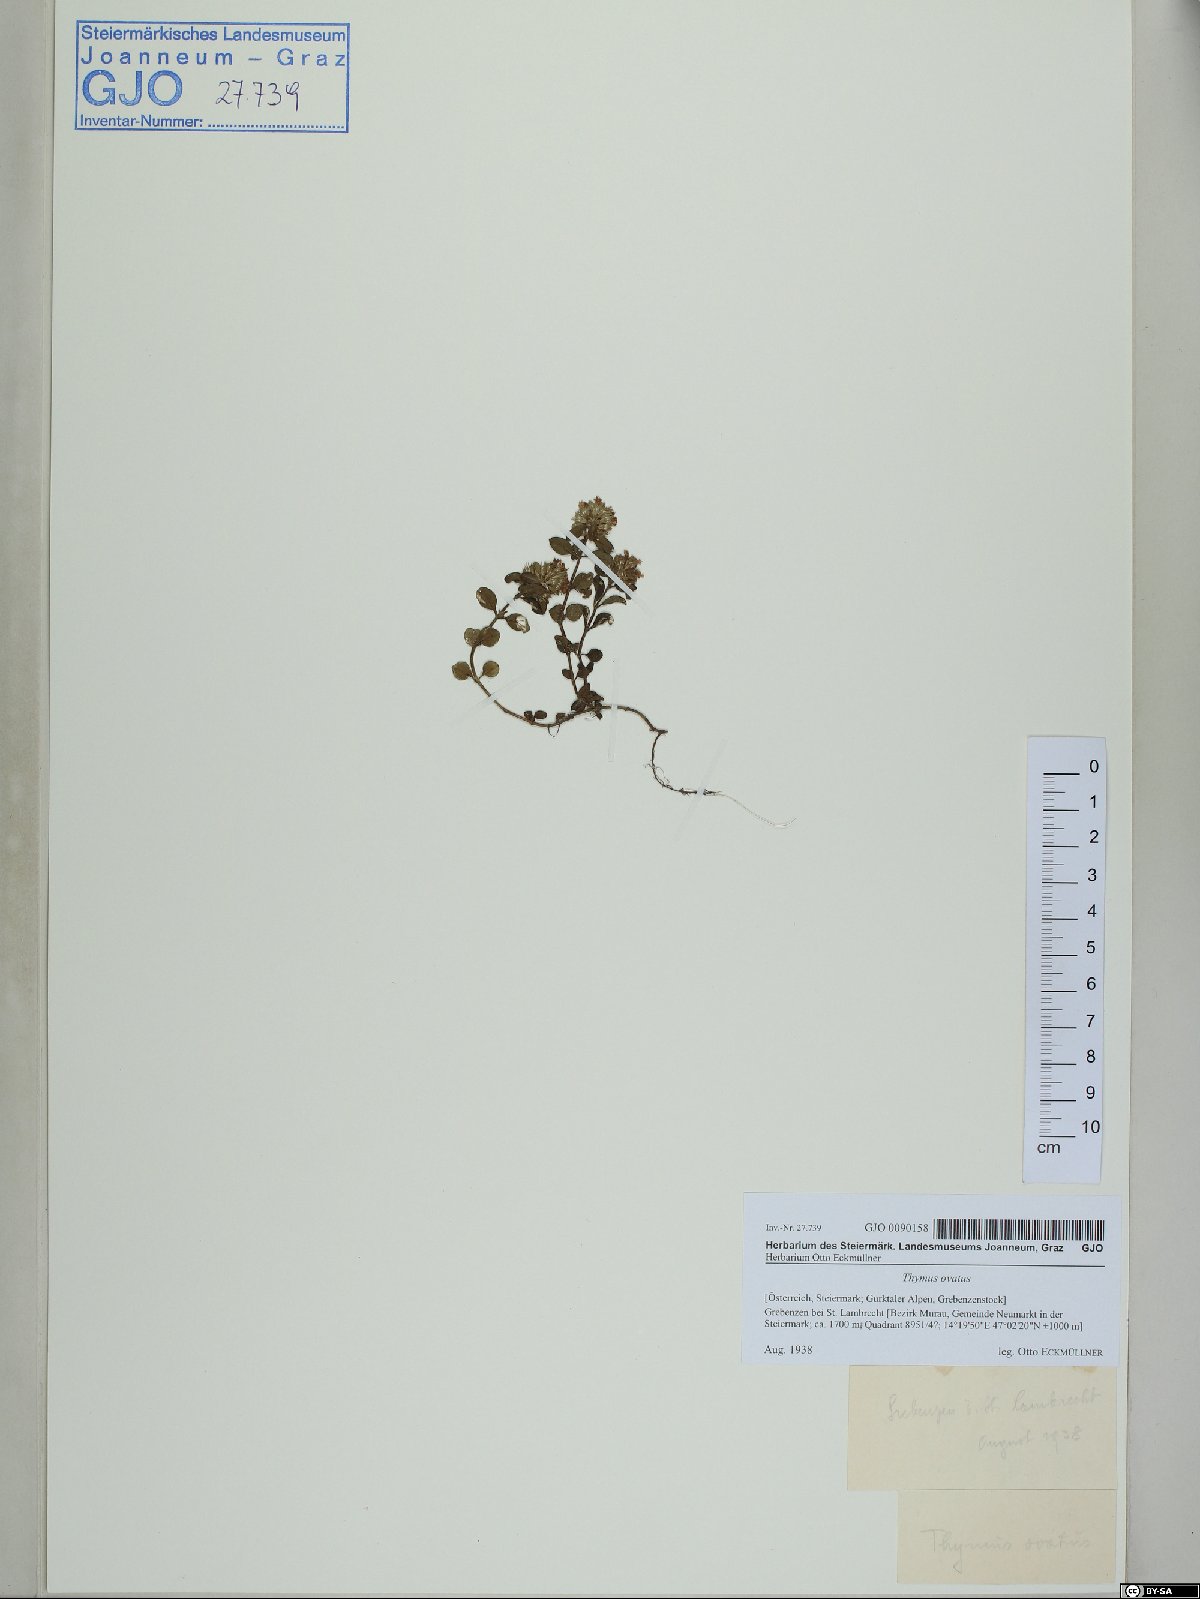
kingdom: Plantae
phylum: Tracheophyta
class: Magnoliopsida
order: Lamiales
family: Lamiaceae
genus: Thymus
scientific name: Thymus pulegioides
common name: Large thyme
